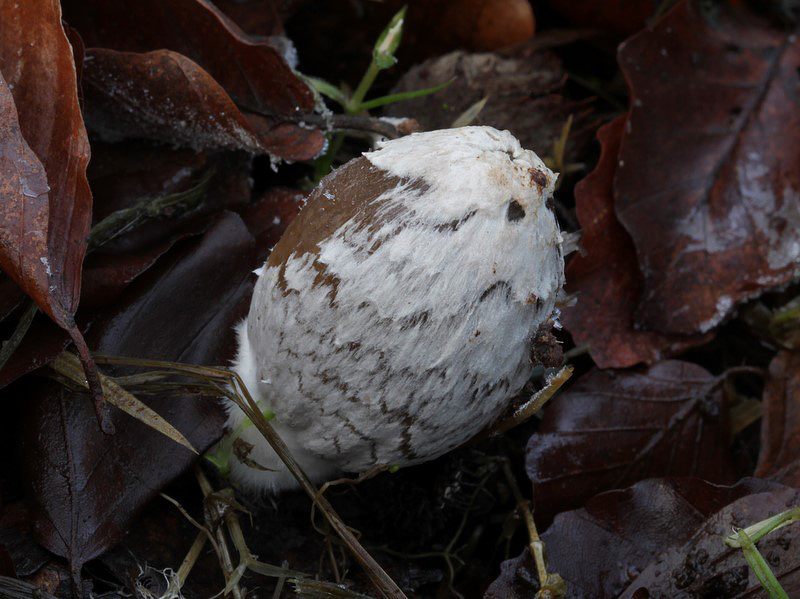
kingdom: Fungi
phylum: Basidiomycota
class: Agaricomycetes
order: Agaricales
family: Psathyrellaceae
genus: Coprinopsis
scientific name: Coprinopsis picacea
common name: skade-blækhat
